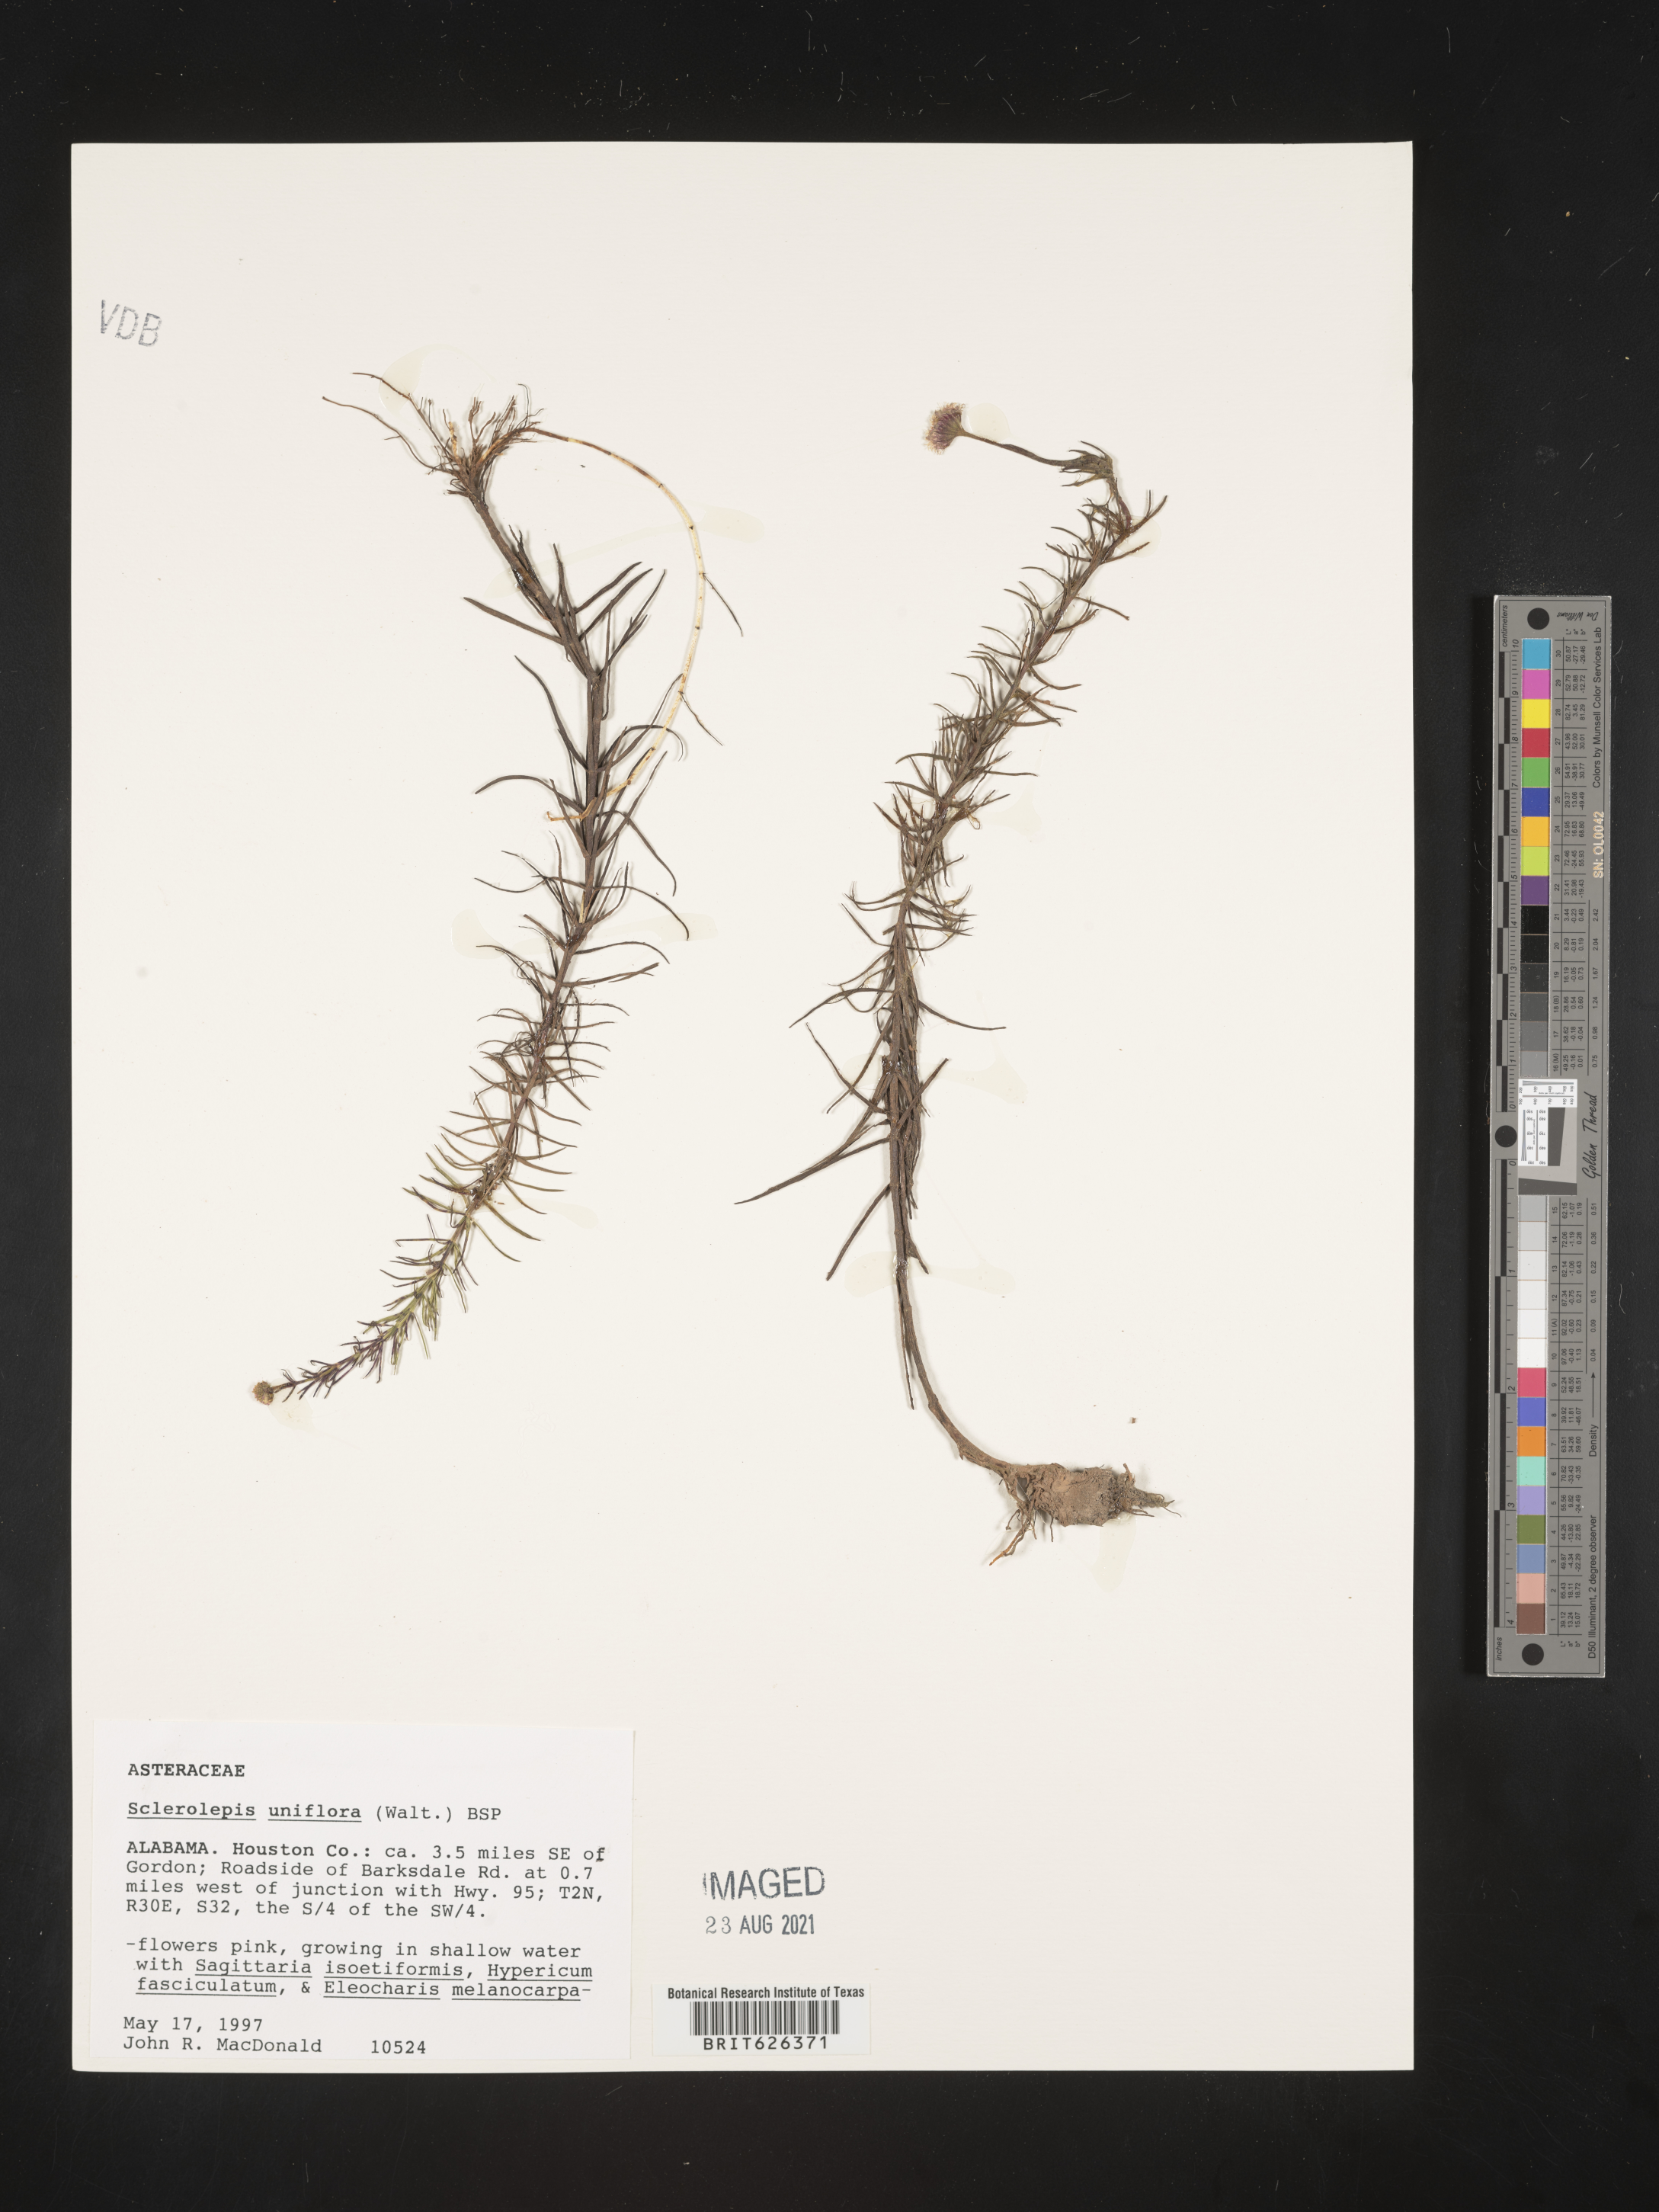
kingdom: Plantae
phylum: Tracheophyta
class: Magnoliopsida
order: Asterales
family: Asteraceae
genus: Sclerolepis
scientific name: Sclerolepis
